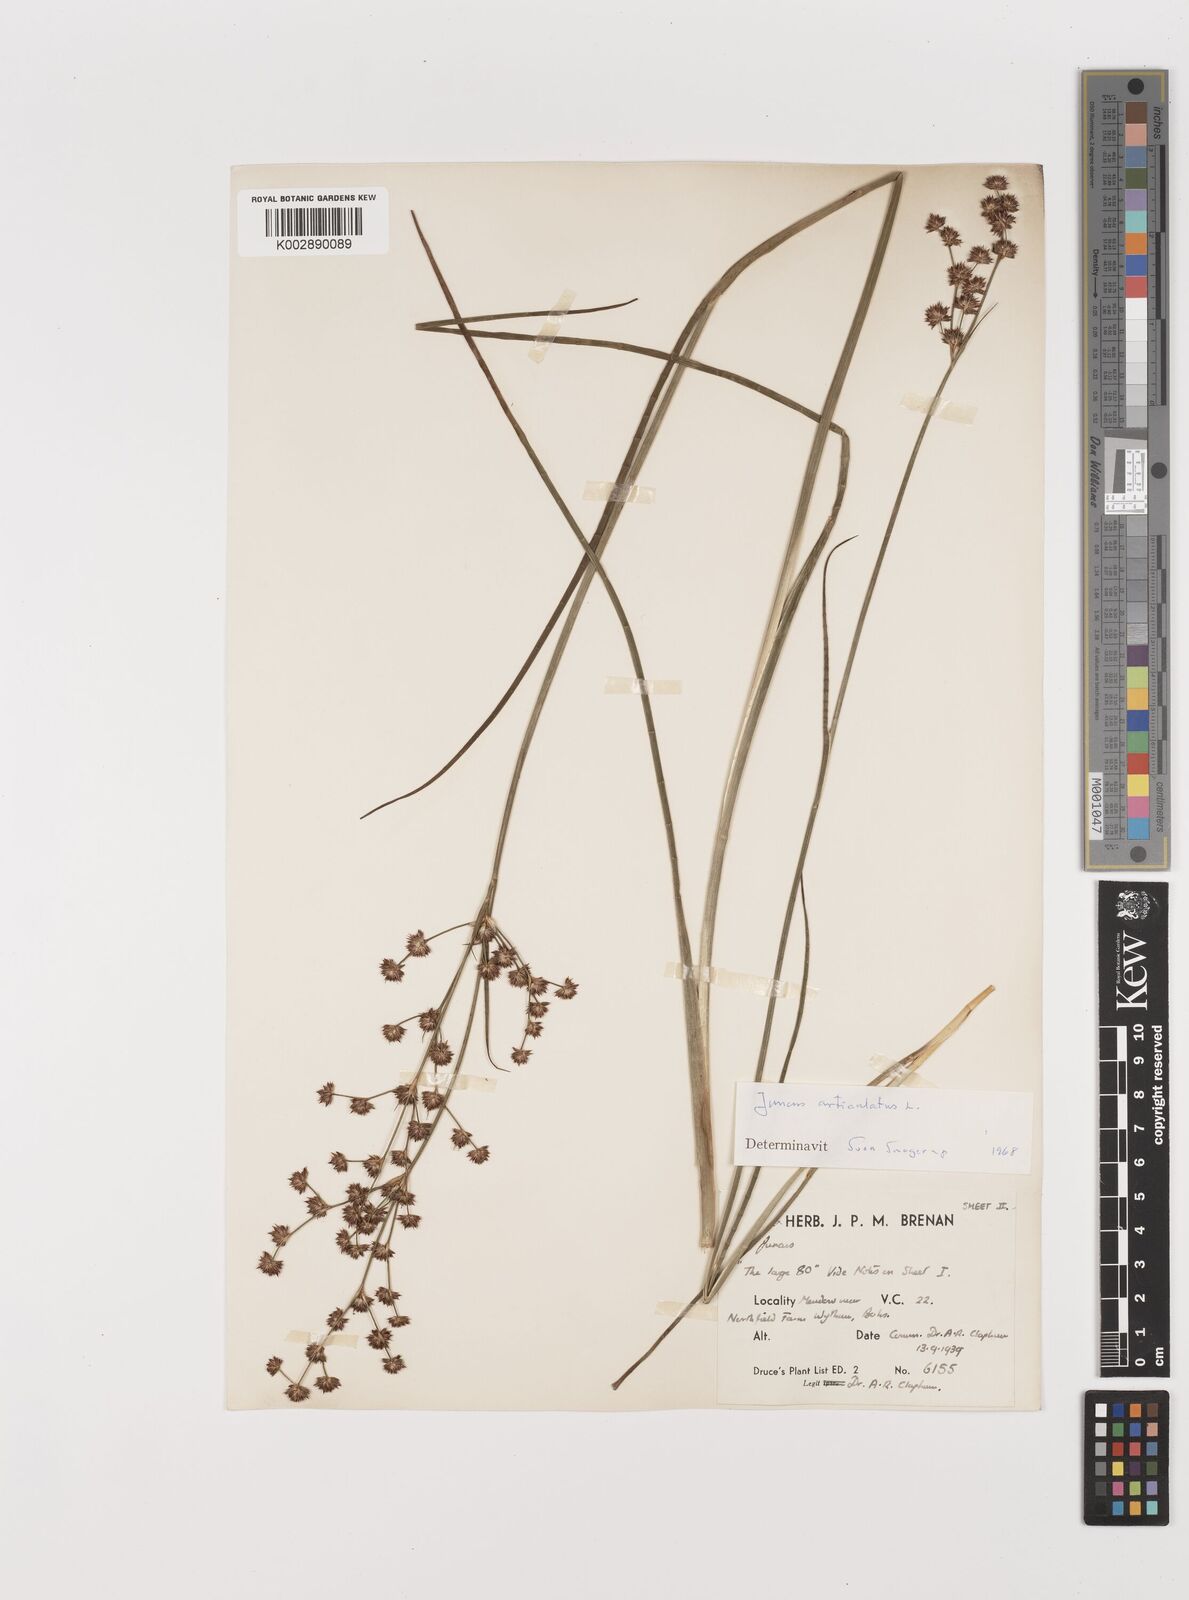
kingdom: Plantae
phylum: Tracheophyta
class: Liliopsida
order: Poales
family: Juncaceae
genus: Juncus
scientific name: Juncus articulatus
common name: Jointed rush
